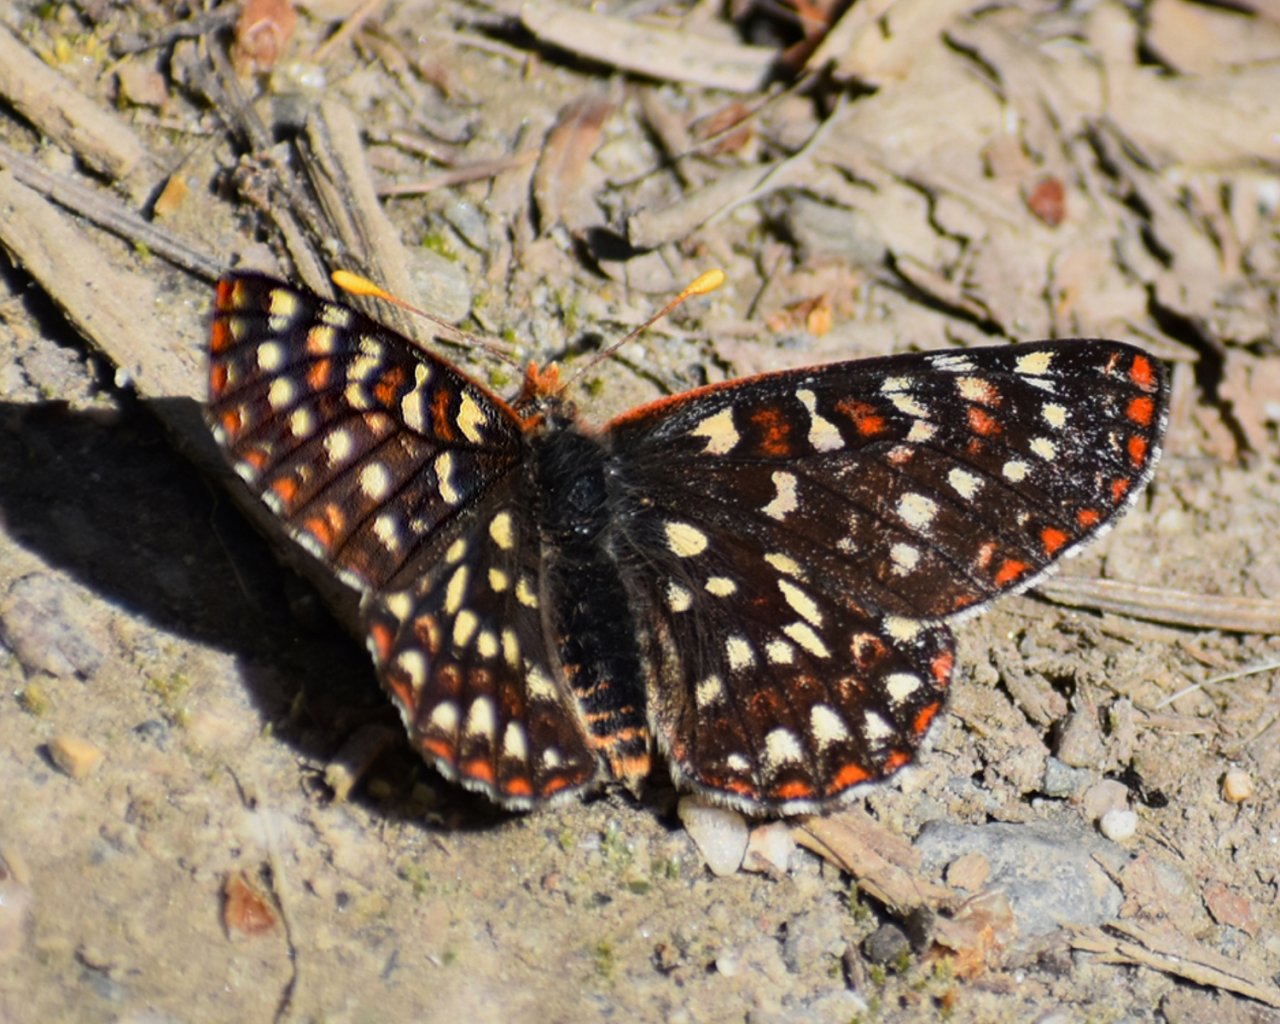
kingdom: Animalia
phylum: Arthropoda
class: Insecta
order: Lepidoptera
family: Nymphalidae
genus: Occidryas
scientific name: Occidryas colon
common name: Snowberry Checkerspot
